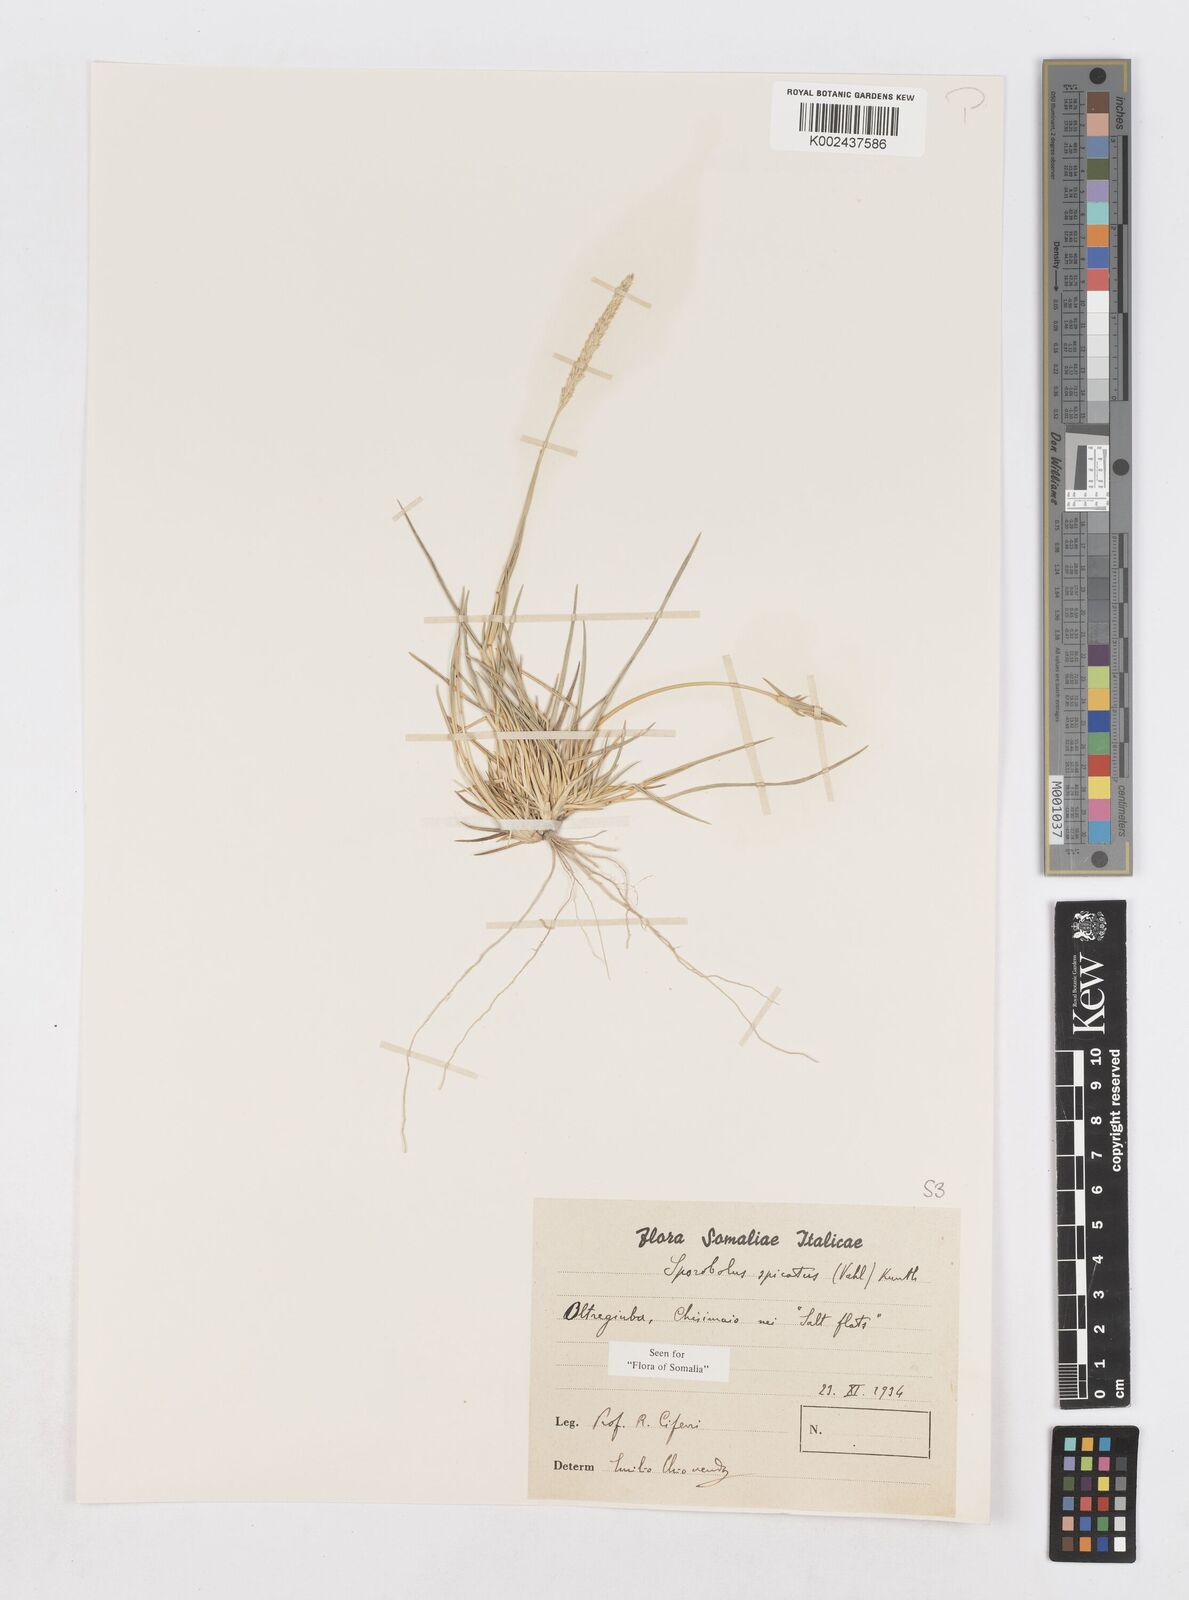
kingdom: Plantae
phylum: Tracheophyta
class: Liliopsida
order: Poales
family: Poaceae
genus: Sporobolus
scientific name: Sporobolus spicatus
